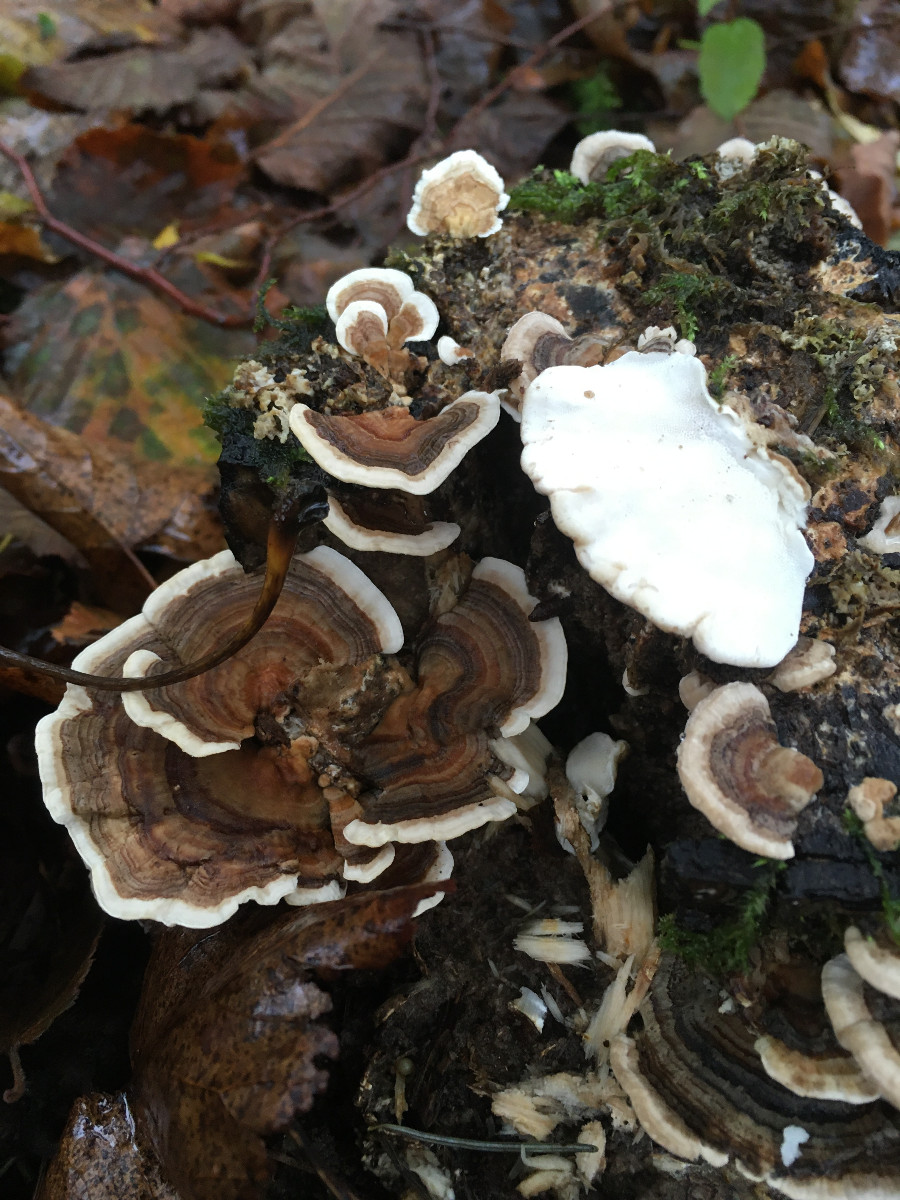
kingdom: Fungi
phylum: Basidiomycota
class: Agaricomycetes
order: Polyporales
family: Polyporaceae
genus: Trametes
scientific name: Trametes versicolor
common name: broget læderporesvamp
